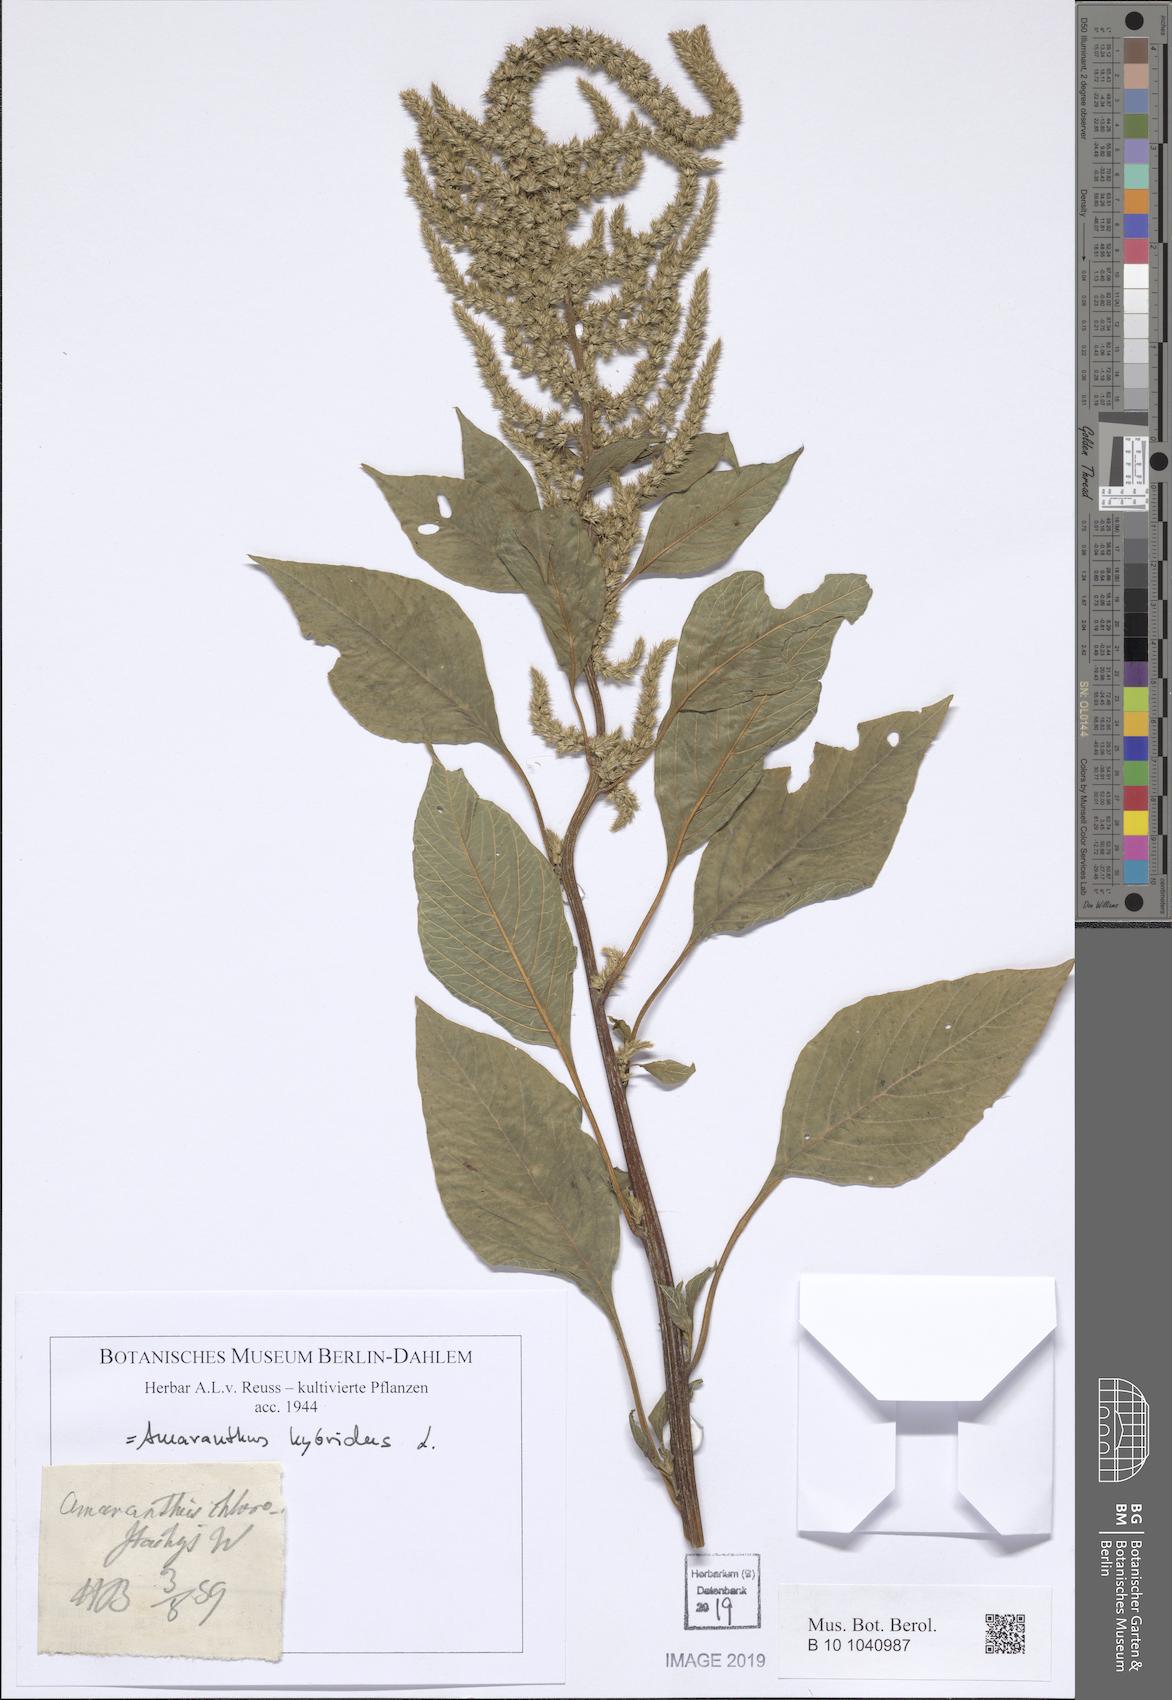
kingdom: Plantae
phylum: Tracheophyta
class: Magnoliopsida
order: Caryophyllales
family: Amaranthaceae
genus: Amaranthus
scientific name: Amaranthus hybridus
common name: Green amaranth
